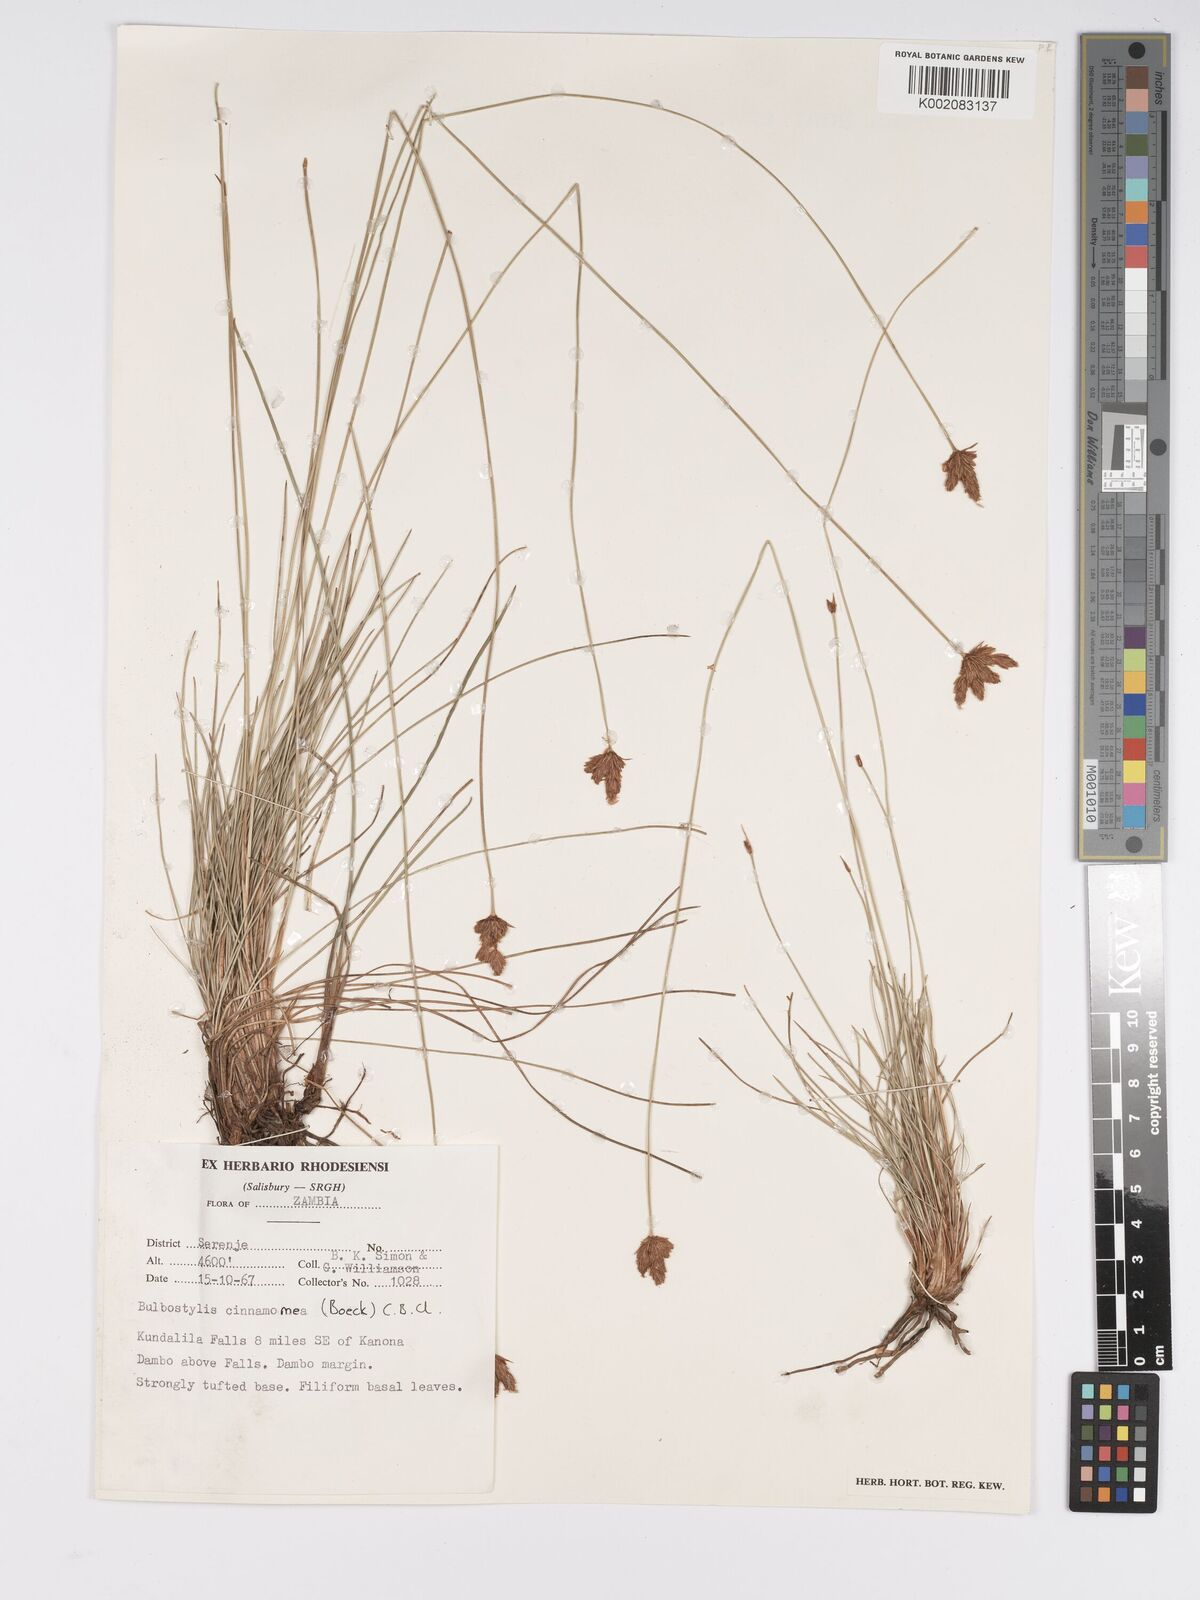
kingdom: Plantae
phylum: Tracheophyta
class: Liliopsida
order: Poales
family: Cyperaceae
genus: Bulbostylis
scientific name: Bulbostylis schoenoides
